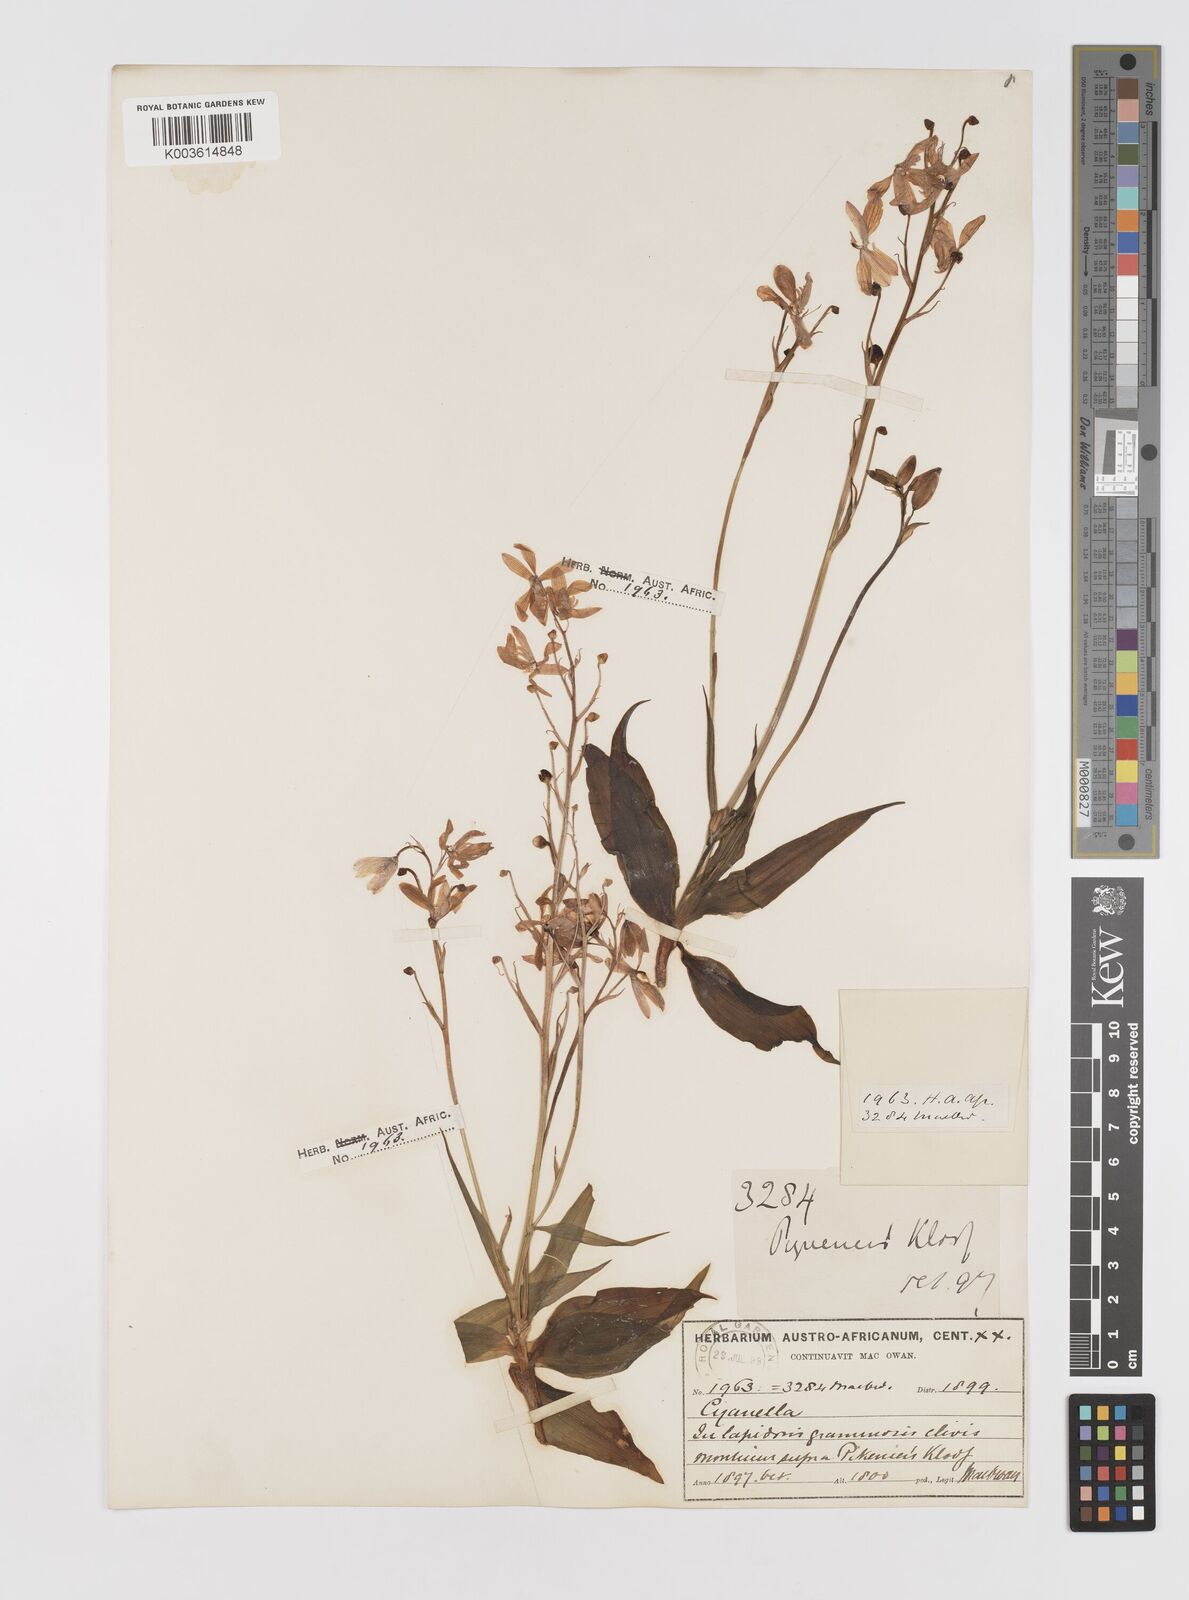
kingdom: Plantae
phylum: Tracheophyta
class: Liliopsida
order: Asparagales
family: Tecophilaeaceae
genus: Cyanella
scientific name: Cyanella
